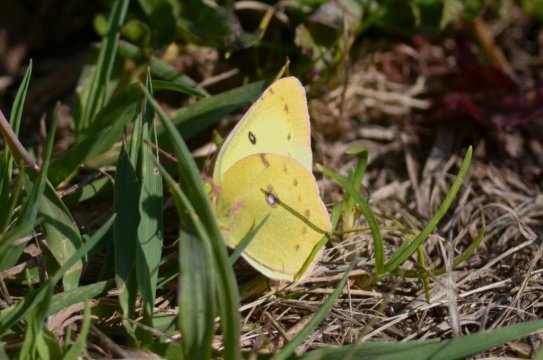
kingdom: Animalia
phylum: Arthropoda
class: Insecta
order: Lepidoptera
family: Pieridae
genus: Colias
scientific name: Colias philodice
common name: Clouded Sulphur
